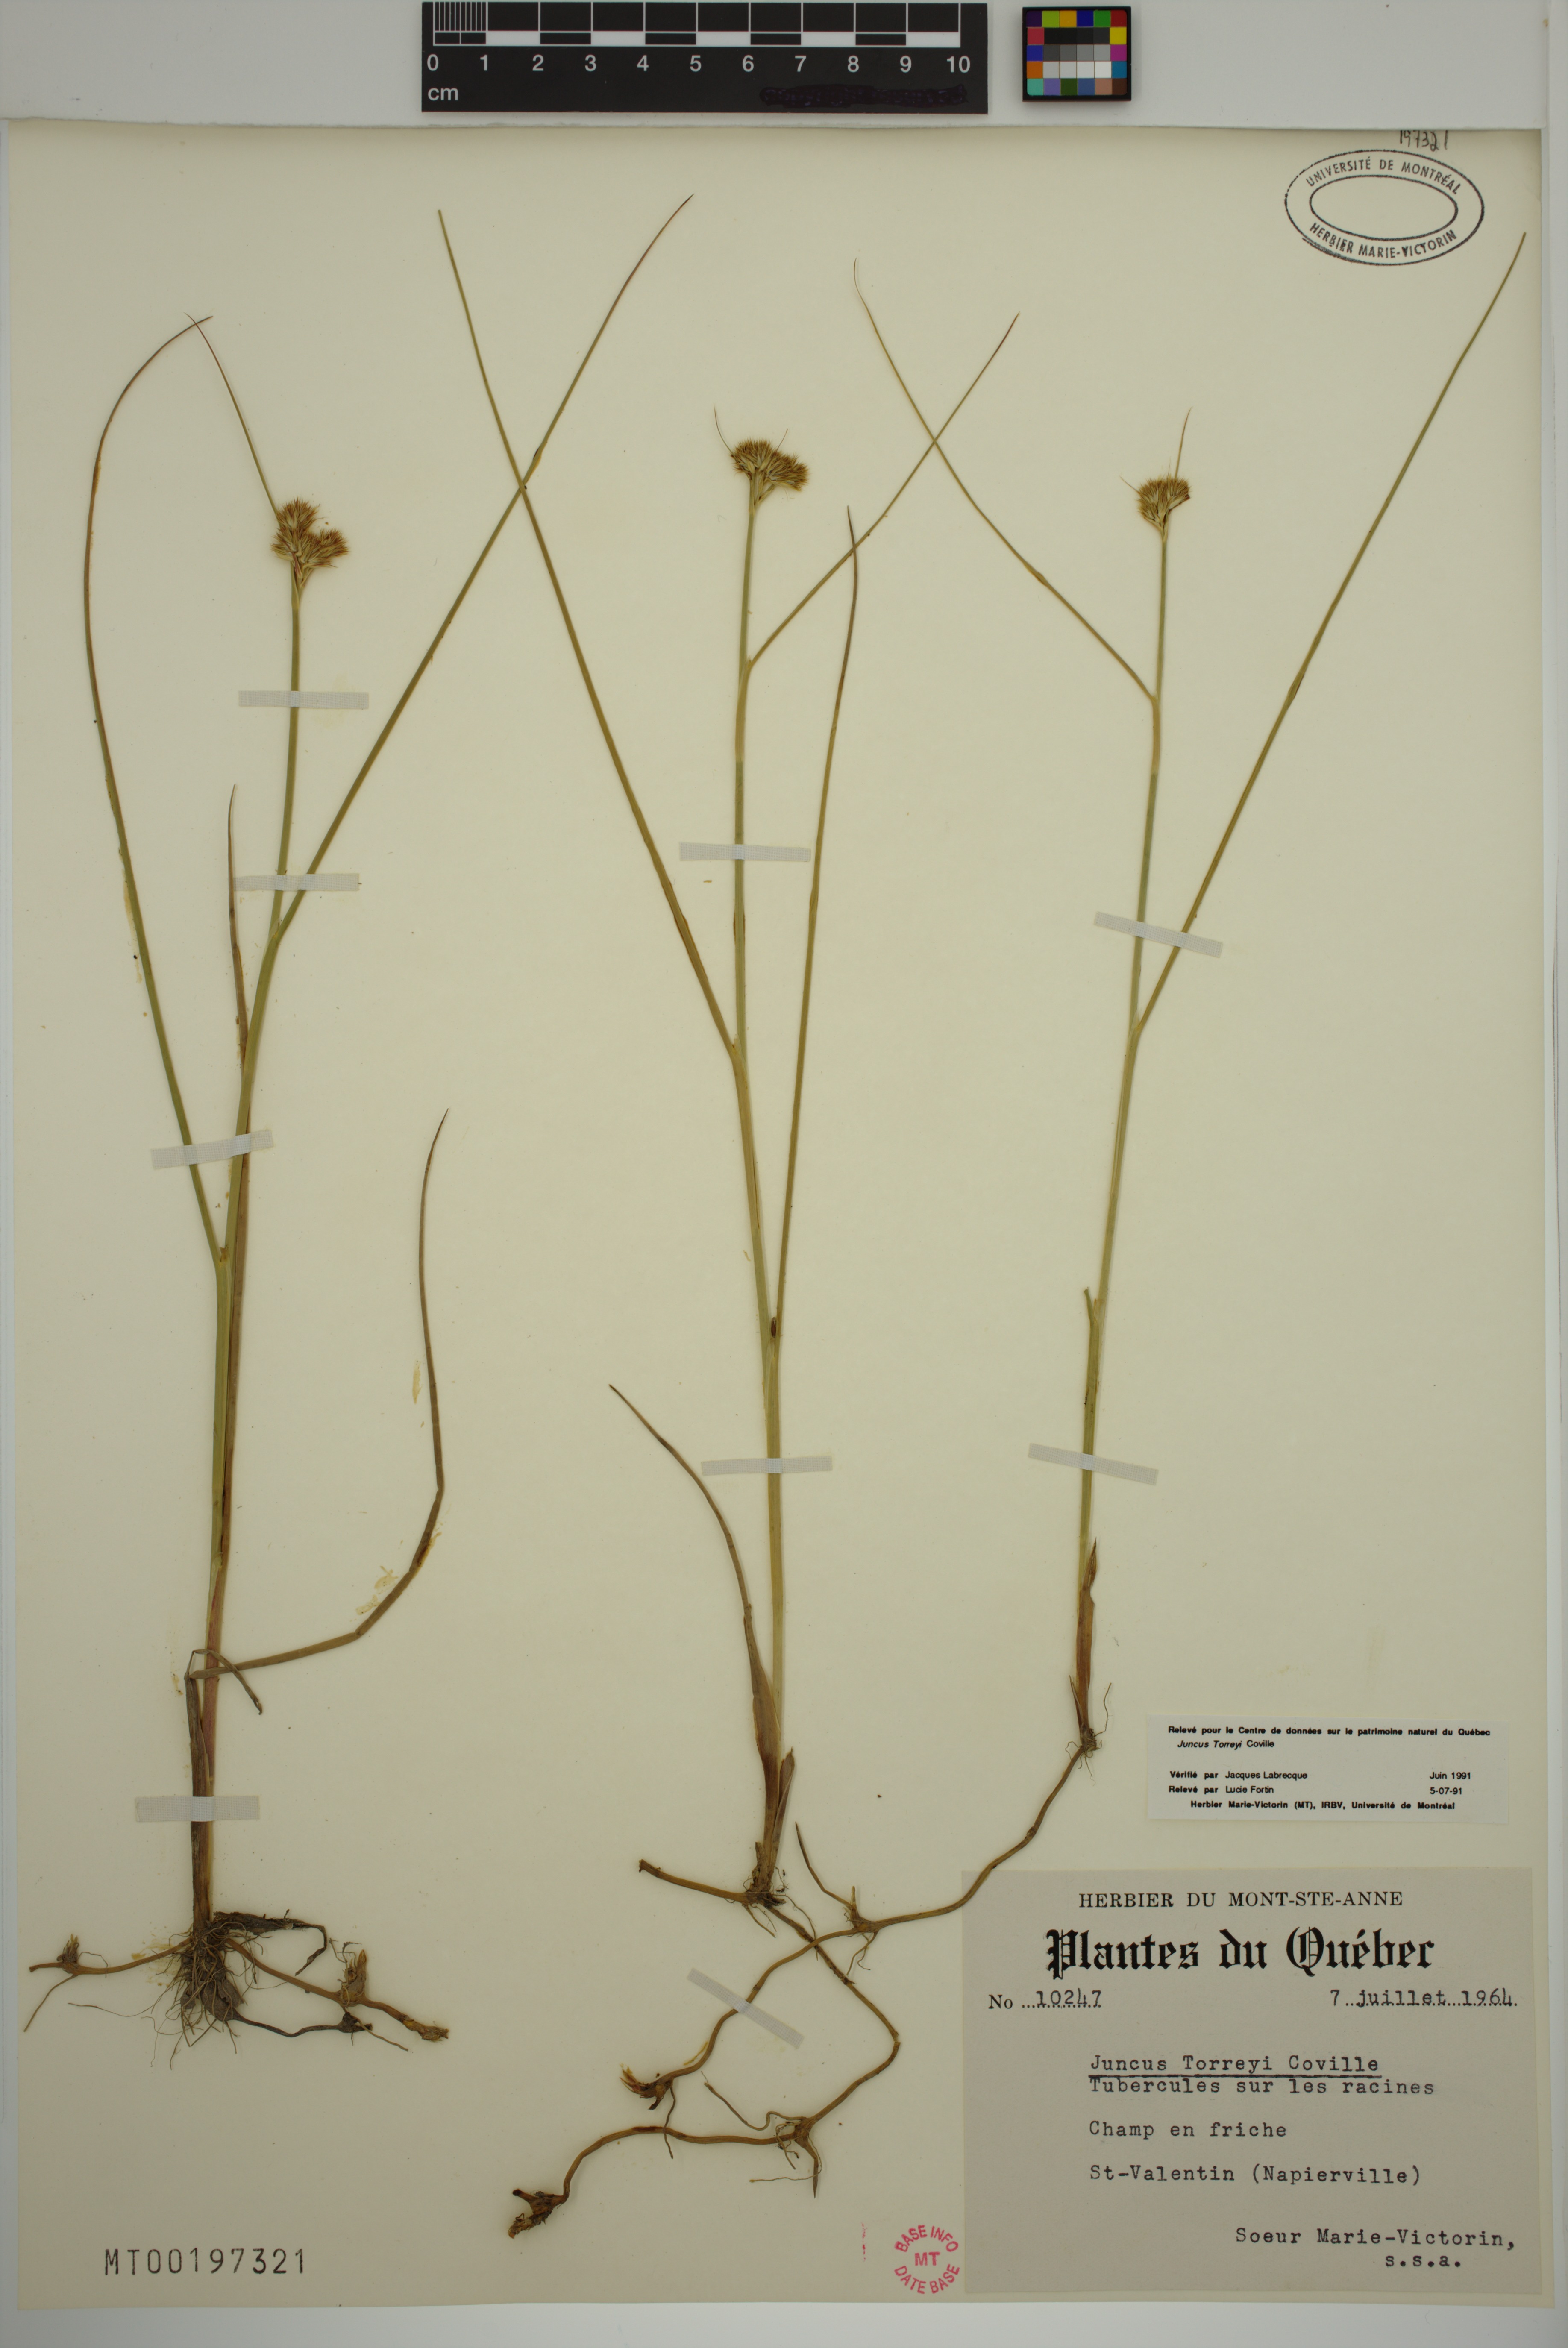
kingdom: Plantae
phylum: Tracheophyta
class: Liliopsida
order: Poales
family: Juncaceae
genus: Juncus
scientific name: Juncus torreyi
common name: Torrey's rush
